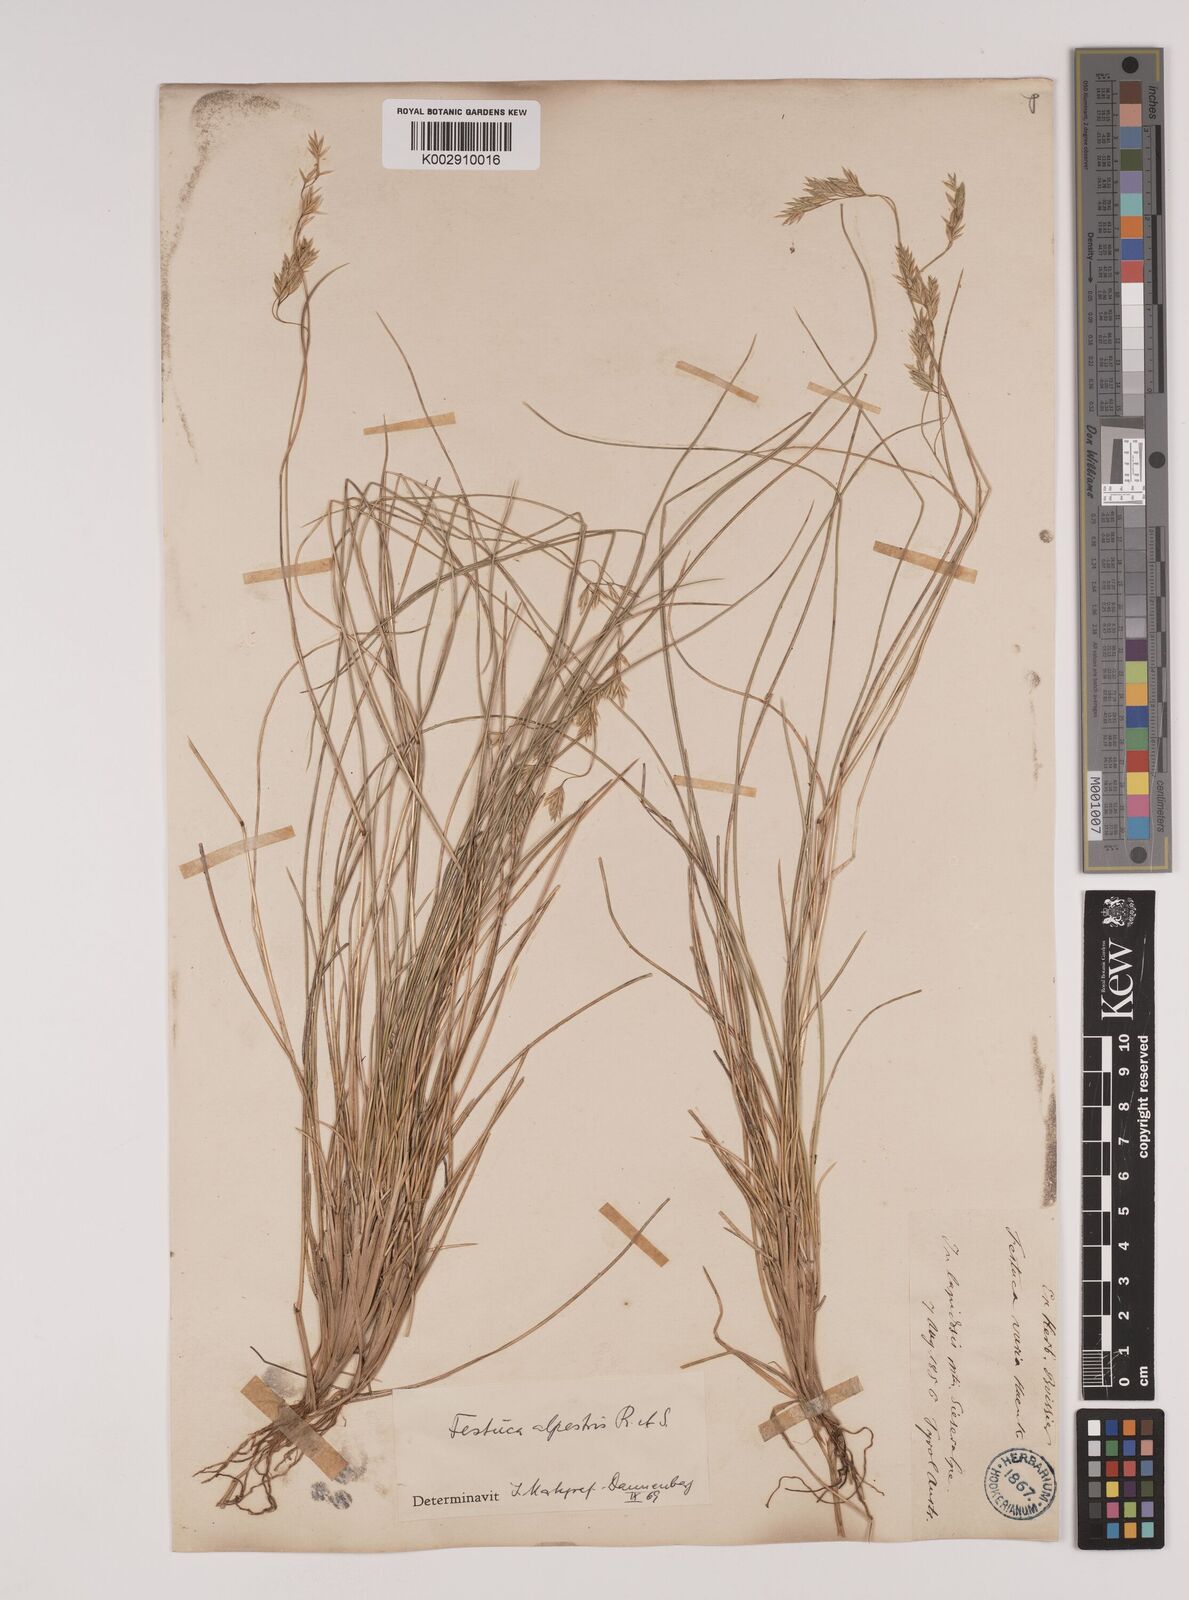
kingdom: Plantae
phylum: Tracheophyta
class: Liliopsida
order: Poales
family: Poaceae
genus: Festuca
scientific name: Festuca alpestris
